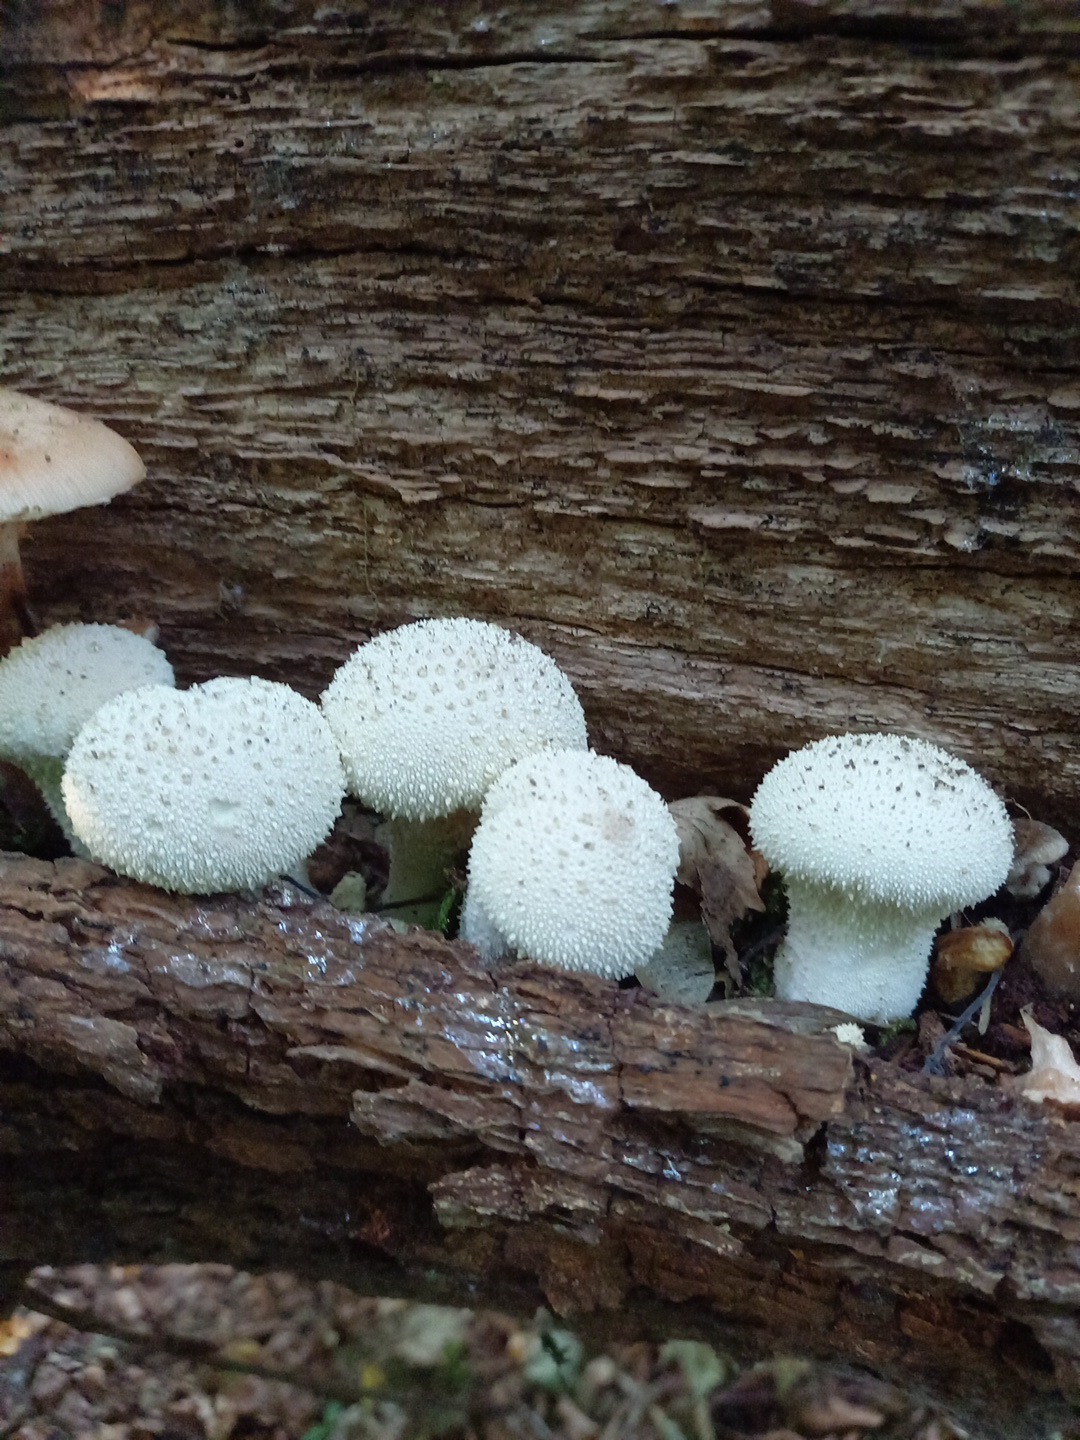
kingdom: Fungi
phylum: Basidiomycota
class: Agaricomycetes
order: Agaricales
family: Lycoperdaceae
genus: Lycoperdon
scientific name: Lycoperdon perlatum
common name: krystal-støvbold
